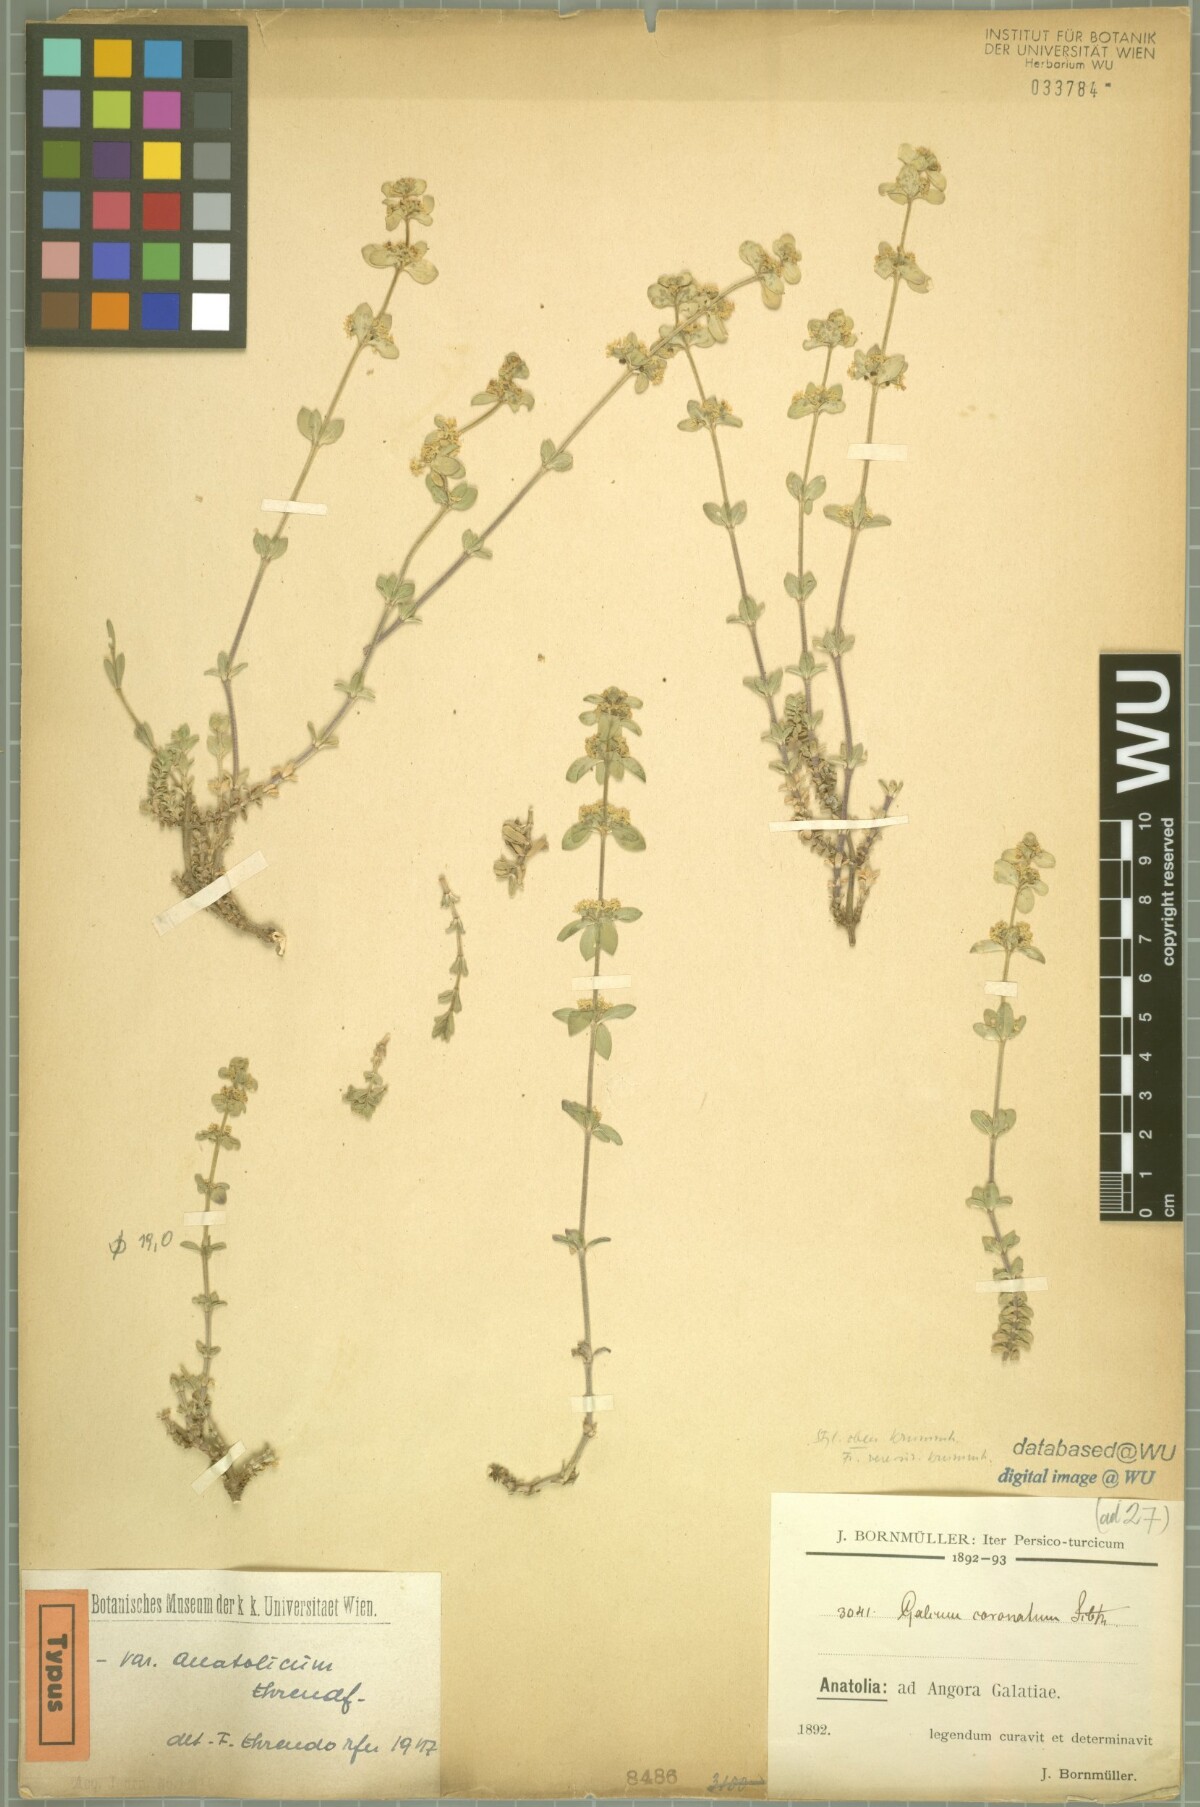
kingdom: Plantae
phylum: Tracheophyta
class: Magnoliopsida
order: Gentianales
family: Rubiaceae
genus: Cruciata
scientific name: Cruciata taurica
